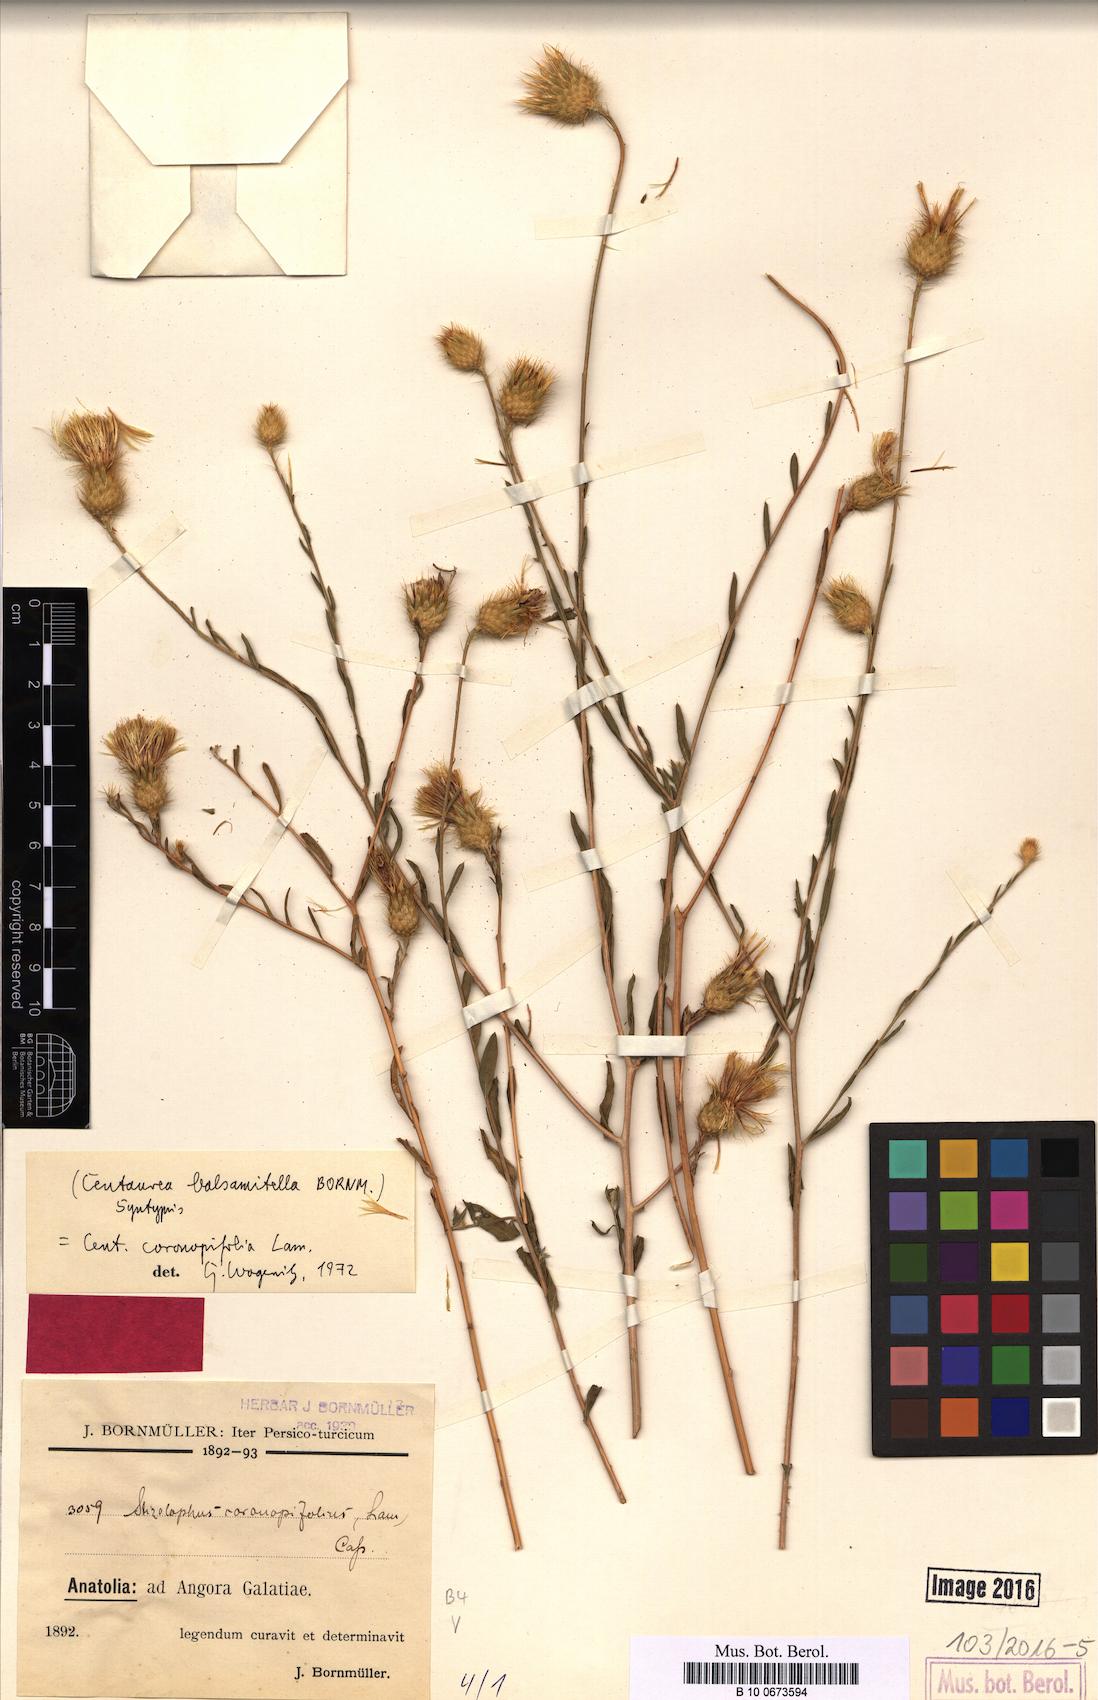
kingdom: Plantae
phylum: Tracheophyta
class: Magnoliopsida
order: Asterales
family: Asteraceae
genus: Stizolophus
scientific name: Stizolophus coronopifolius
